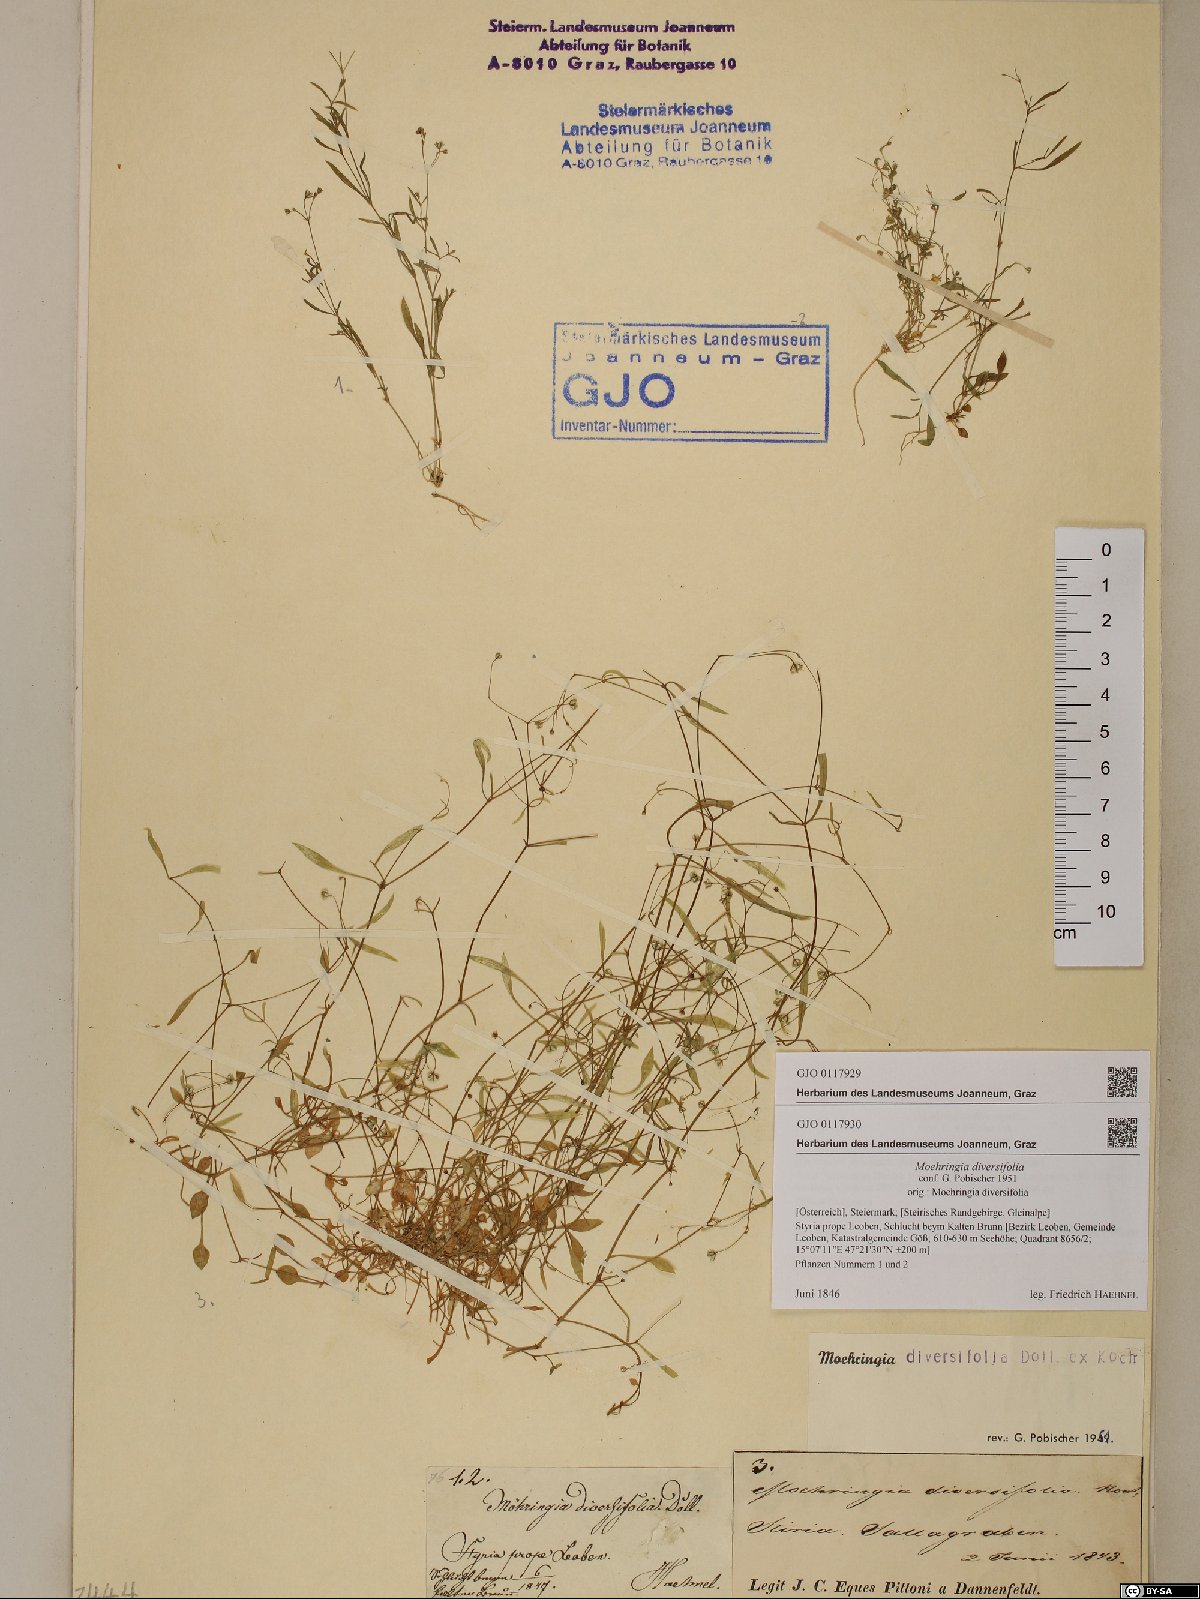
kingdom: Plantae
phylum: Tracheophyta
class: Magnoliopsida
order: Caryophyllales
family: Caryophyllaceae
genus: Moehringia
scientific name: Moehringia diversifolia
